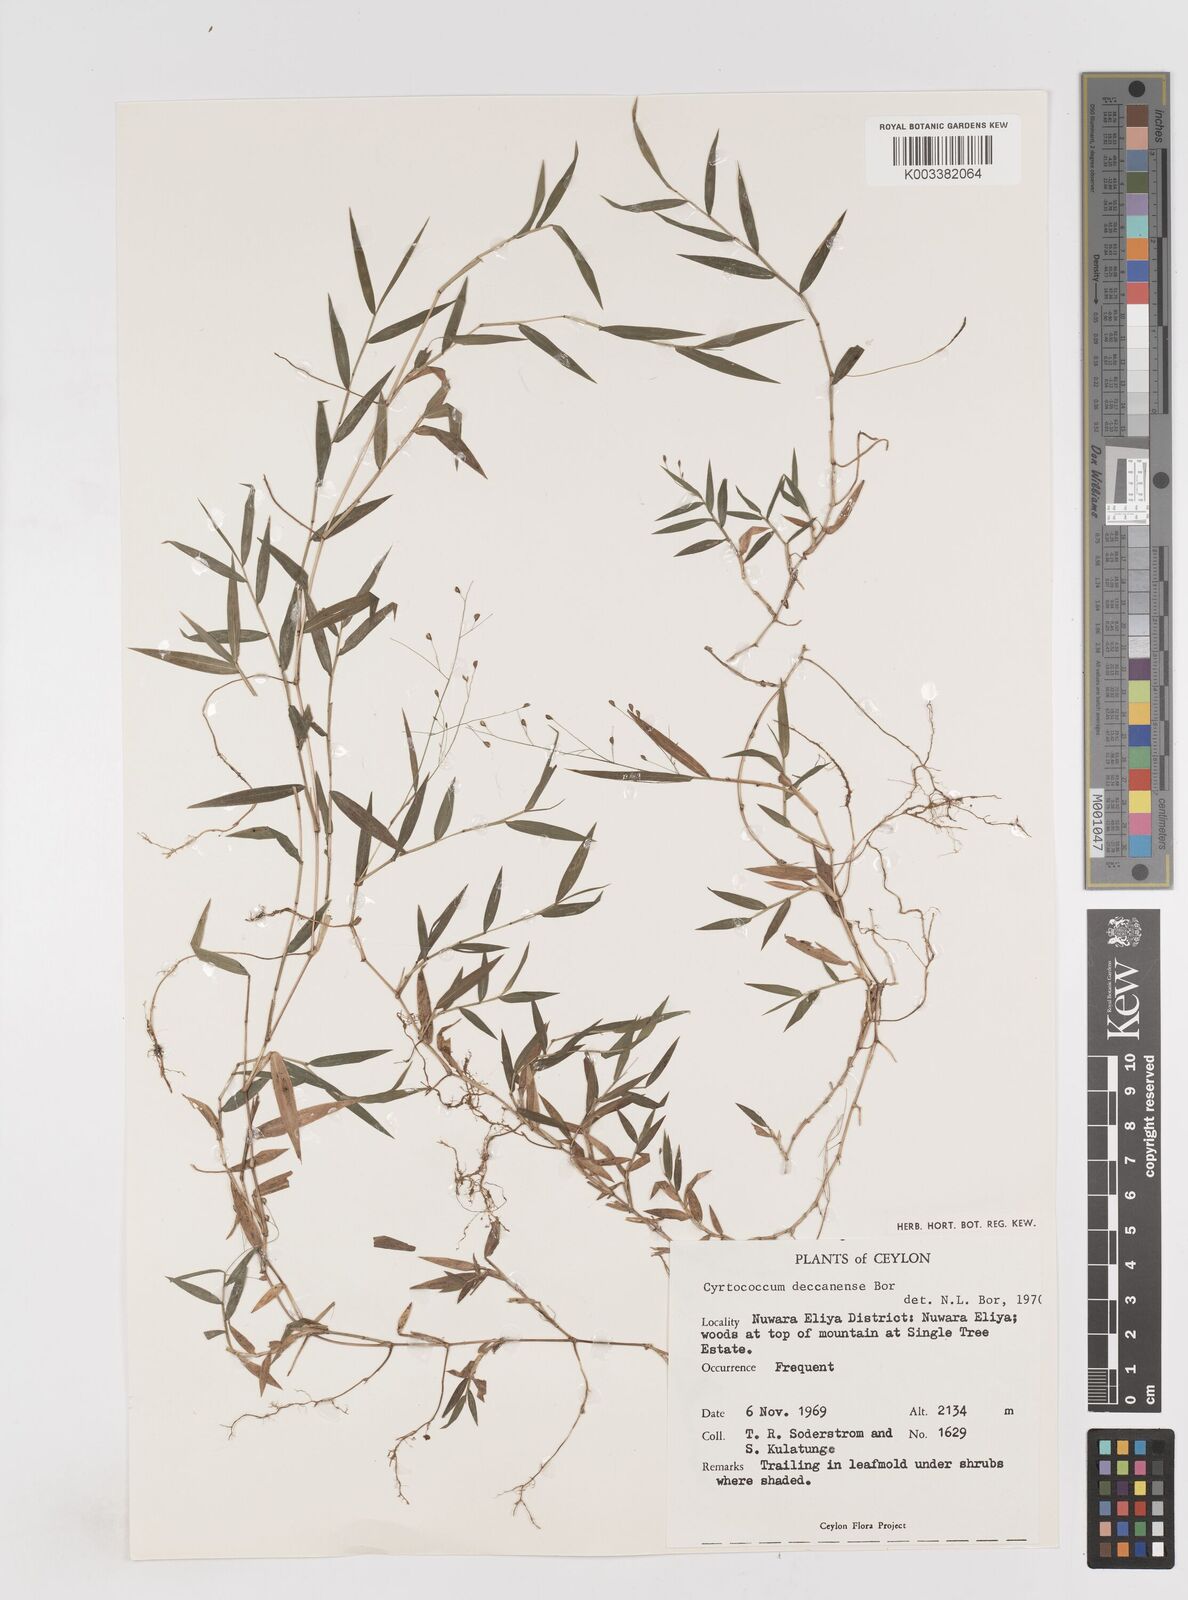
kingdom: Plantae
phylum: Tracheophyta
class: Liliopsida
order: Poales
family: Poaceae
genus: Cyrtococcum
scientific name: Cyrtococcum deccanense
